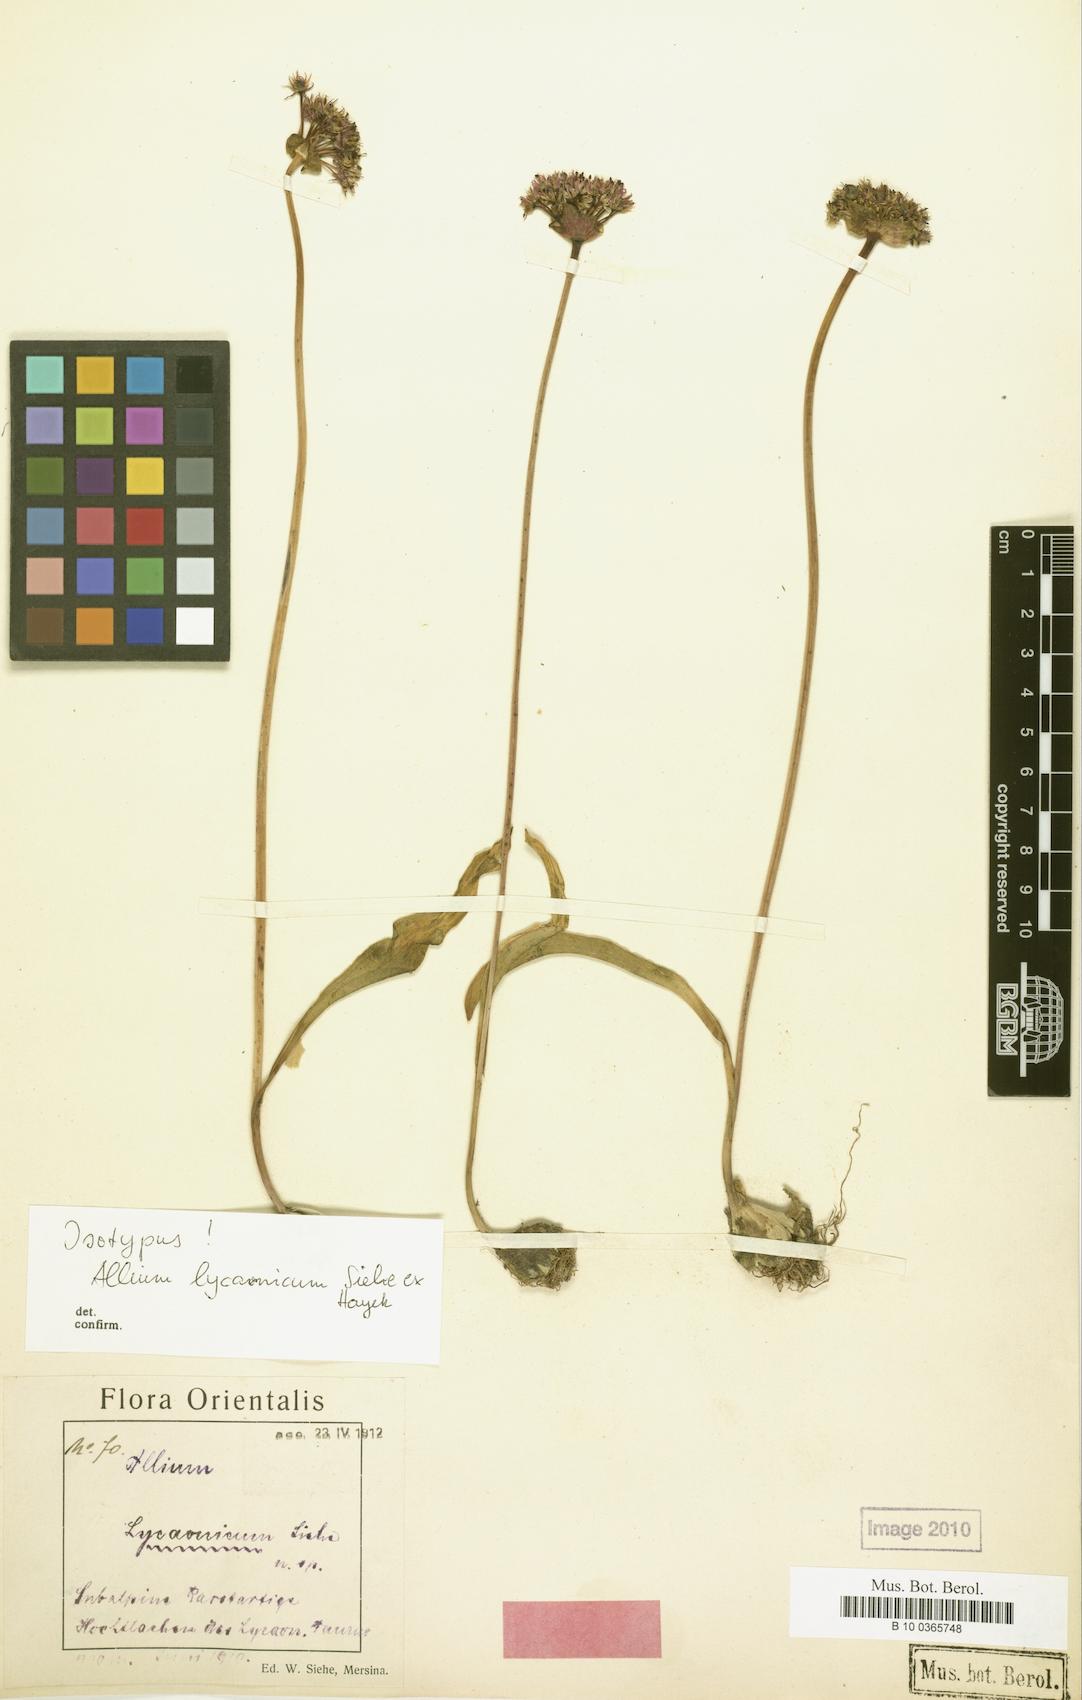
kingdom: Plantae
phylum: Tracheophyta
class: Liliopsida
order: Asparagales
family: Amaryllidaceae
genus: Allium
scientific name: Allium lycaonicum
